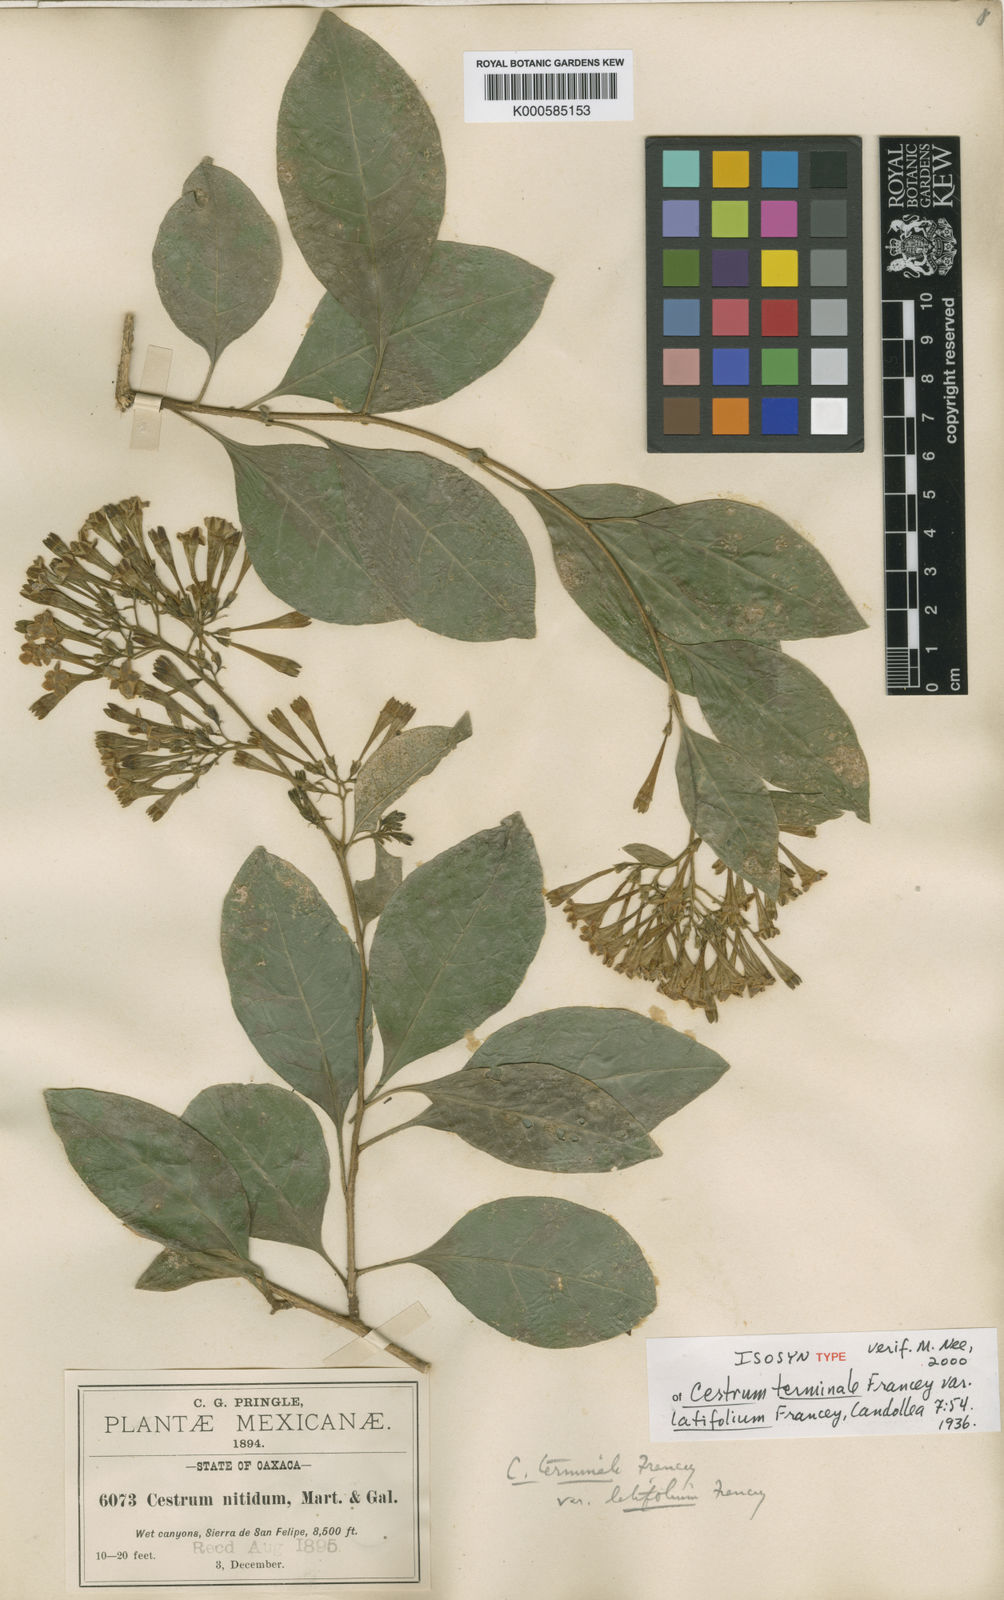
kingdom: Plantae
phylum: Tracheophyta
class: Magnoliopsida
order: Solanales
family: Solanaceae
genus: Cestrum
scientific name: Cestrum nitidum
